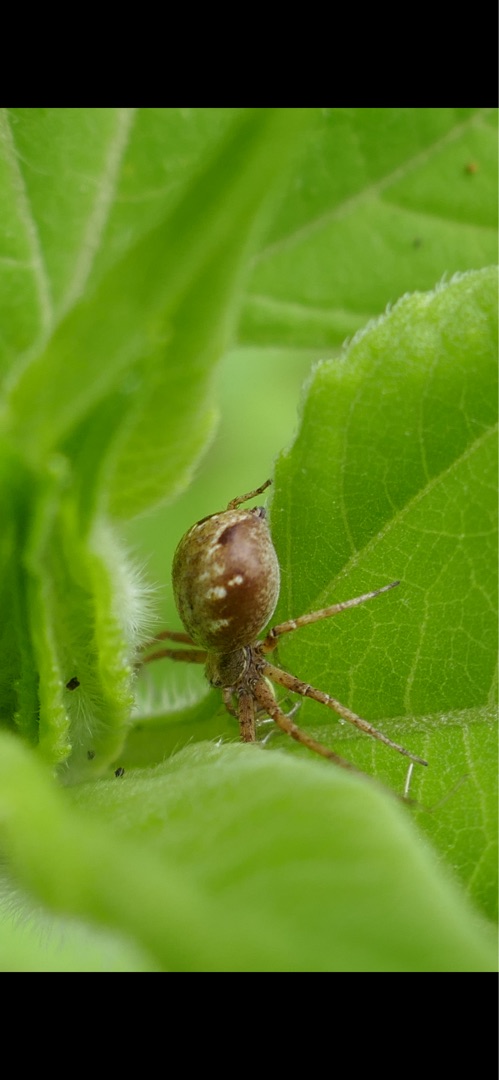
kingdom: Animalia
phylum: Arthropoda
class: Arachnida
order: Araneae
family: Philodromidae
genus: Philodromus
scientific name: Philodromus aureolus
